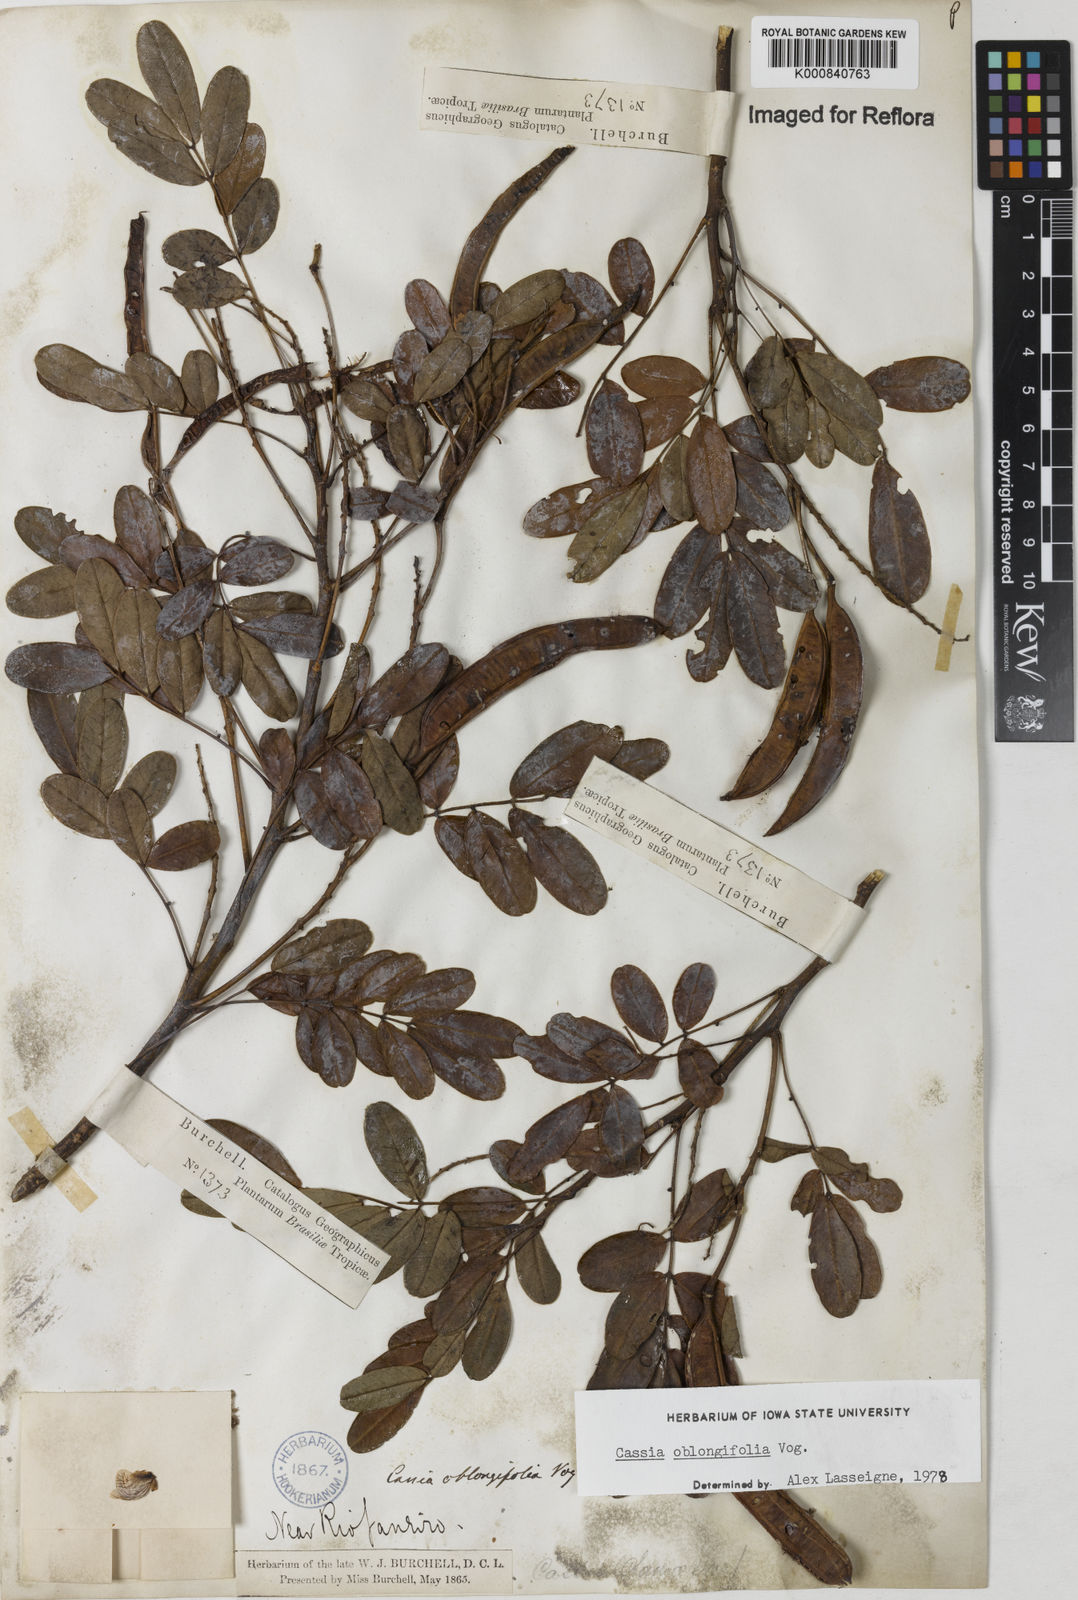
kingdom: Plantae
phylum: Tracheophyta
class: Magnoliopsida
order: Fabales
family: Fabaceae
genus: Senna
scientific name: Senna oblongifolia
